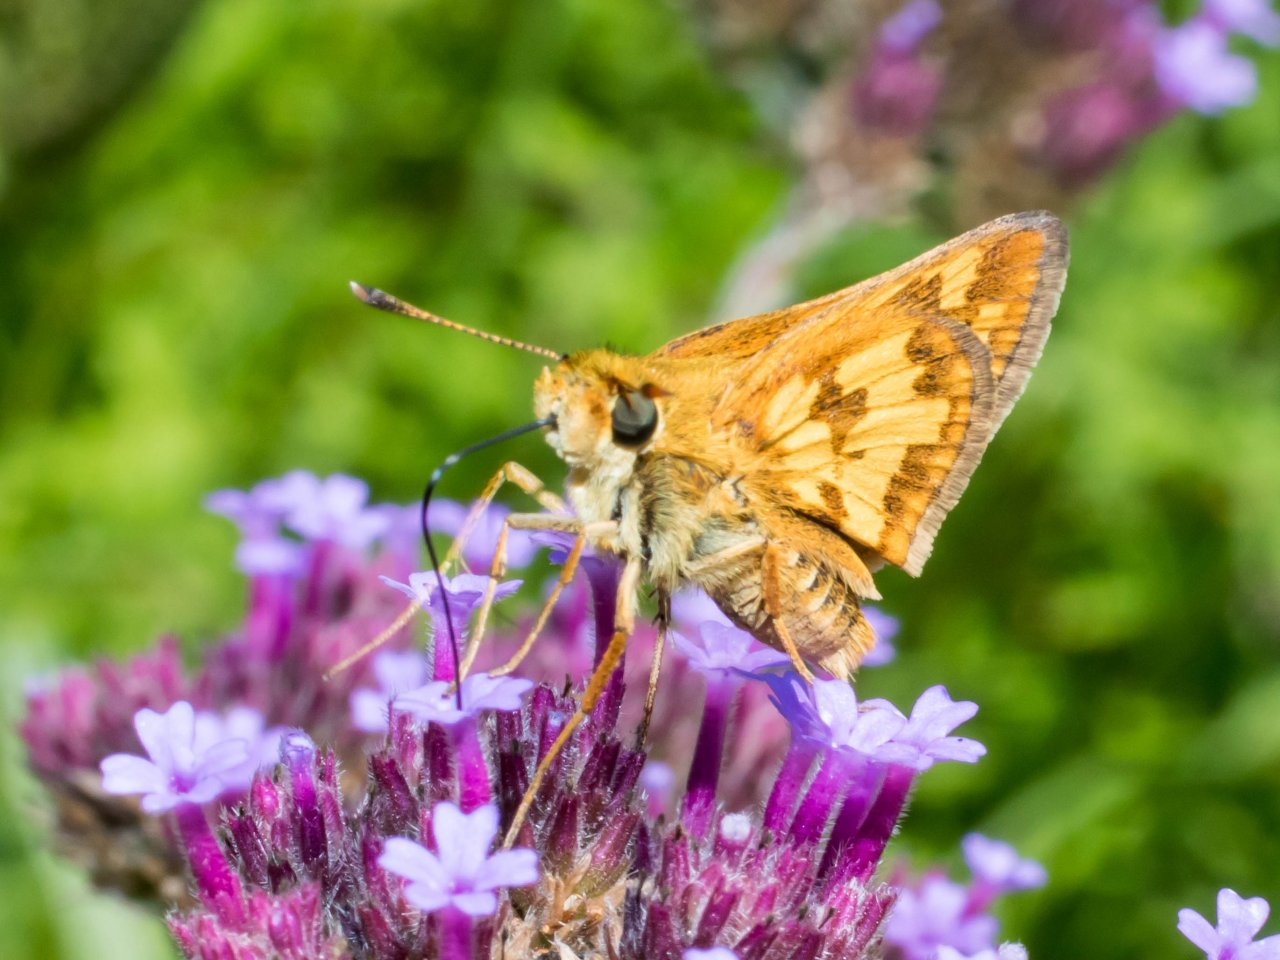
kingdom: Animalia
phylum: Arthropoda
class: Insecta
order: Lepidoptera
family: Hesperiidae
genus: Polites
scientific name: Polites coras
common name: Peck's Skipper
